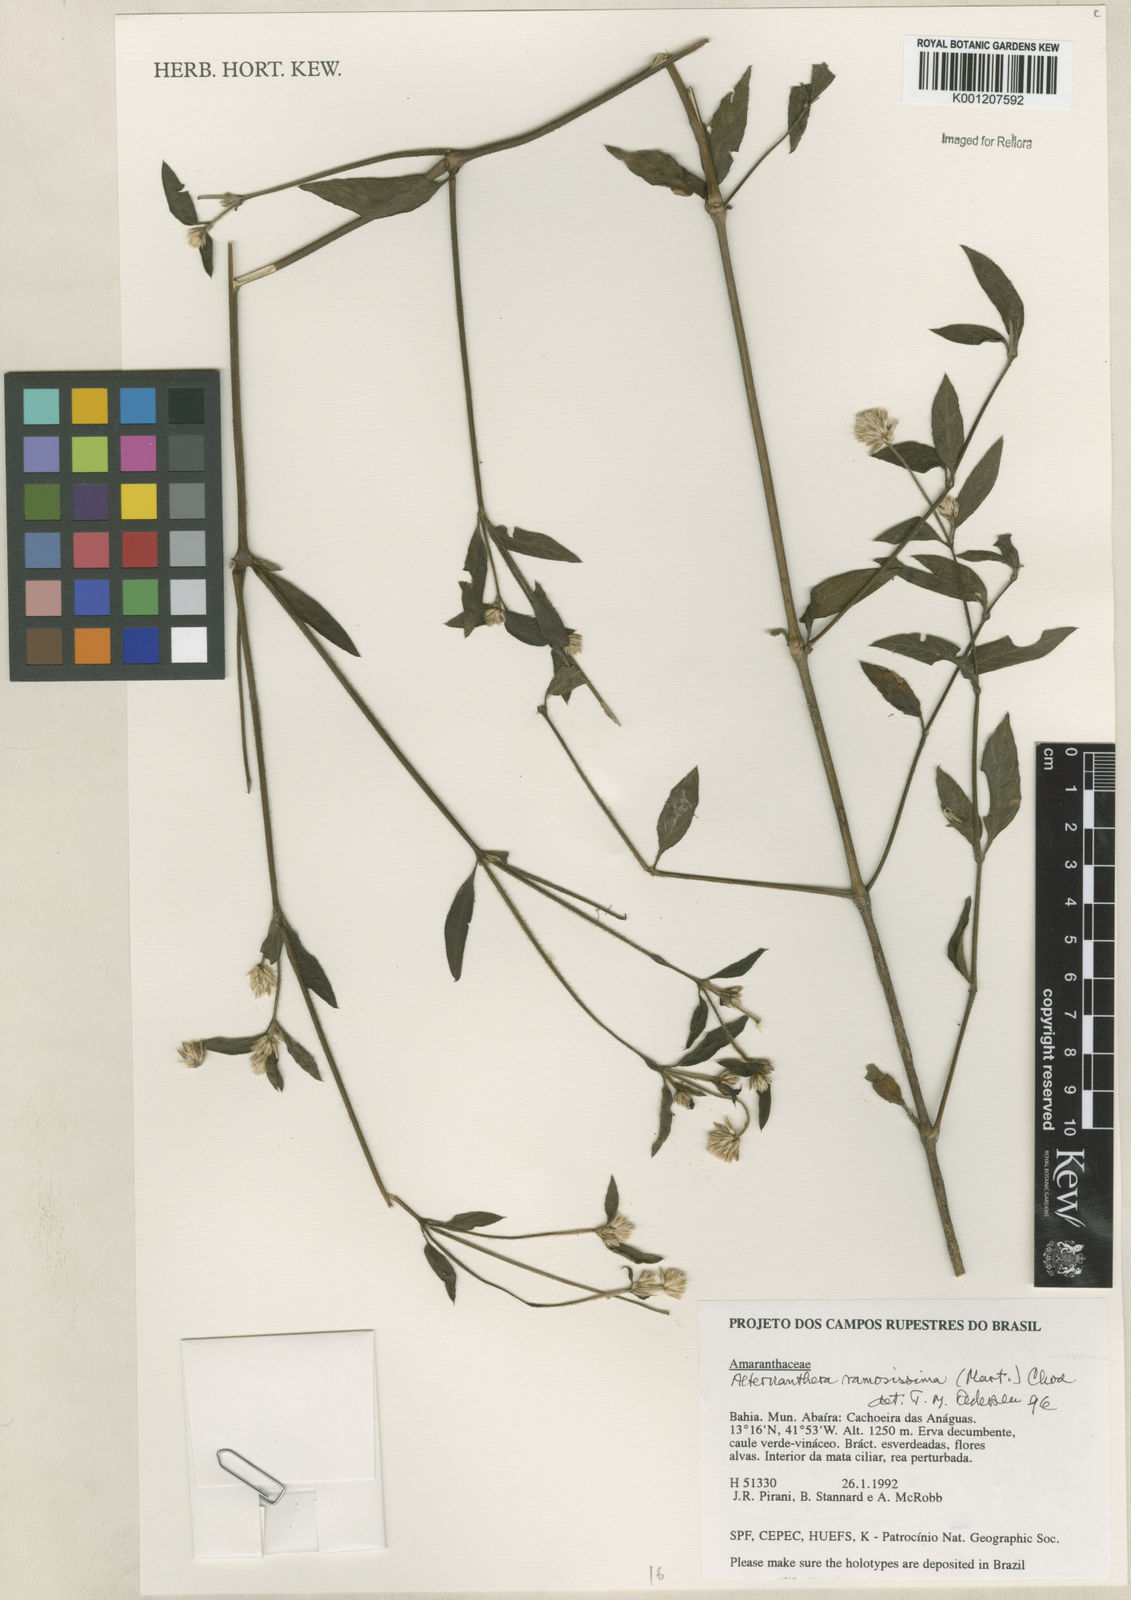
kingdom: Plantae
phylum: Tracheophyta
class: Magnoliopsida
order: Caryophyllales
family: Amaranthaceae
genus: Alternanthera
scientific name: Alternanthera ramosissima
